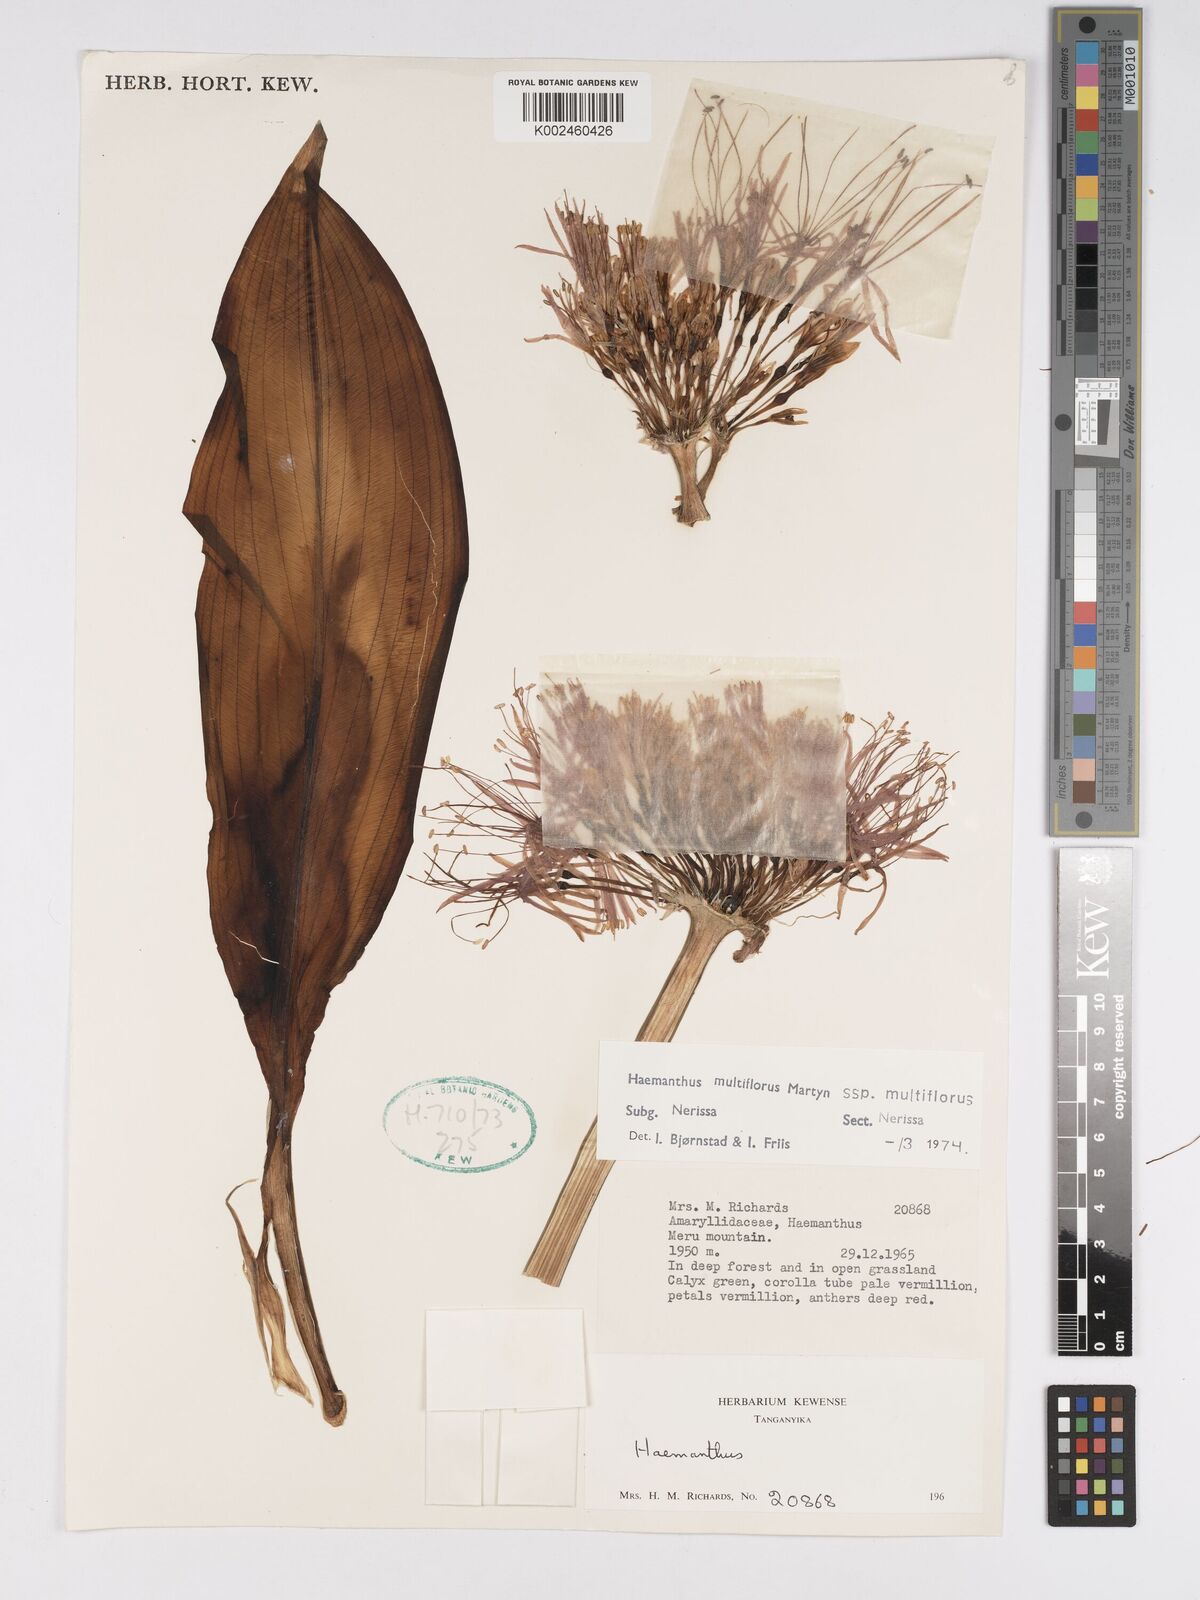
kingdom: Plantae
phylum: Tracheophyta
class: Liliopsida
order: Asparagales
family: Amaryllidaceae
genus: Scadoxus
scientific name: Scadoxus multiflorus
